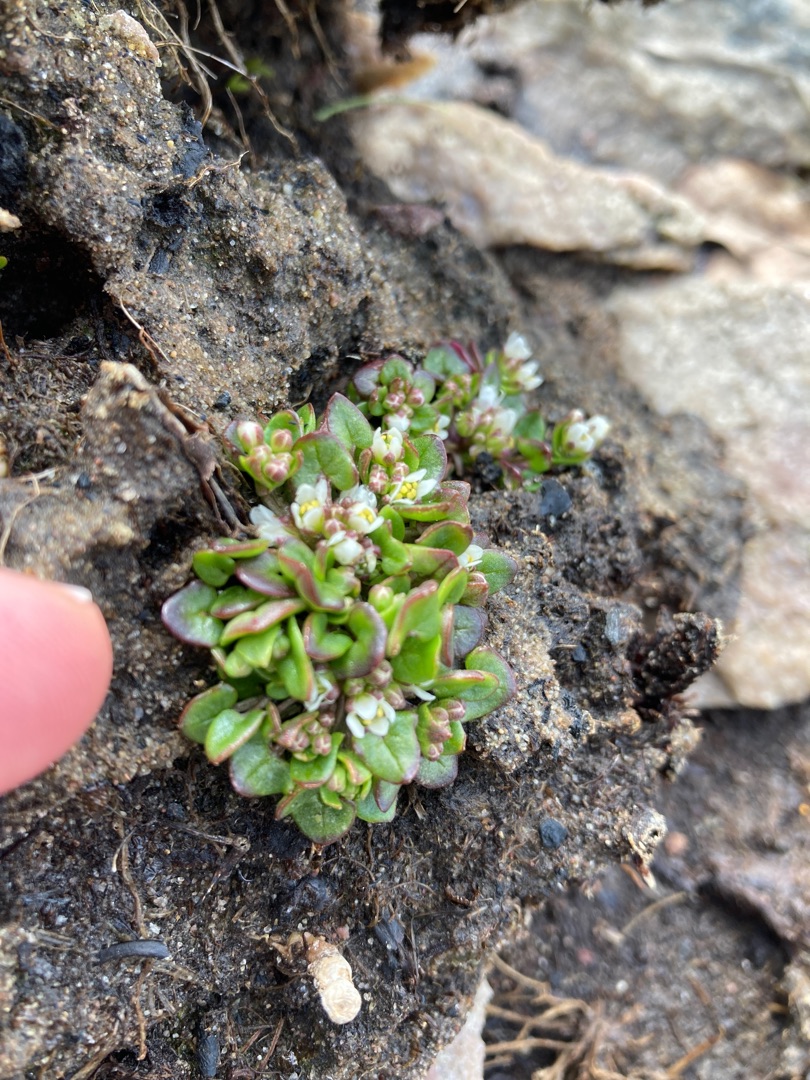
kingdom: Plantae
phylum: Tracheophyta
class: Magnoliopsida
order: Brassicales
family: Brassicaceae
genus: Cochlearia
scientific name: Cochlearia danica
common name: Dansk kokleare
